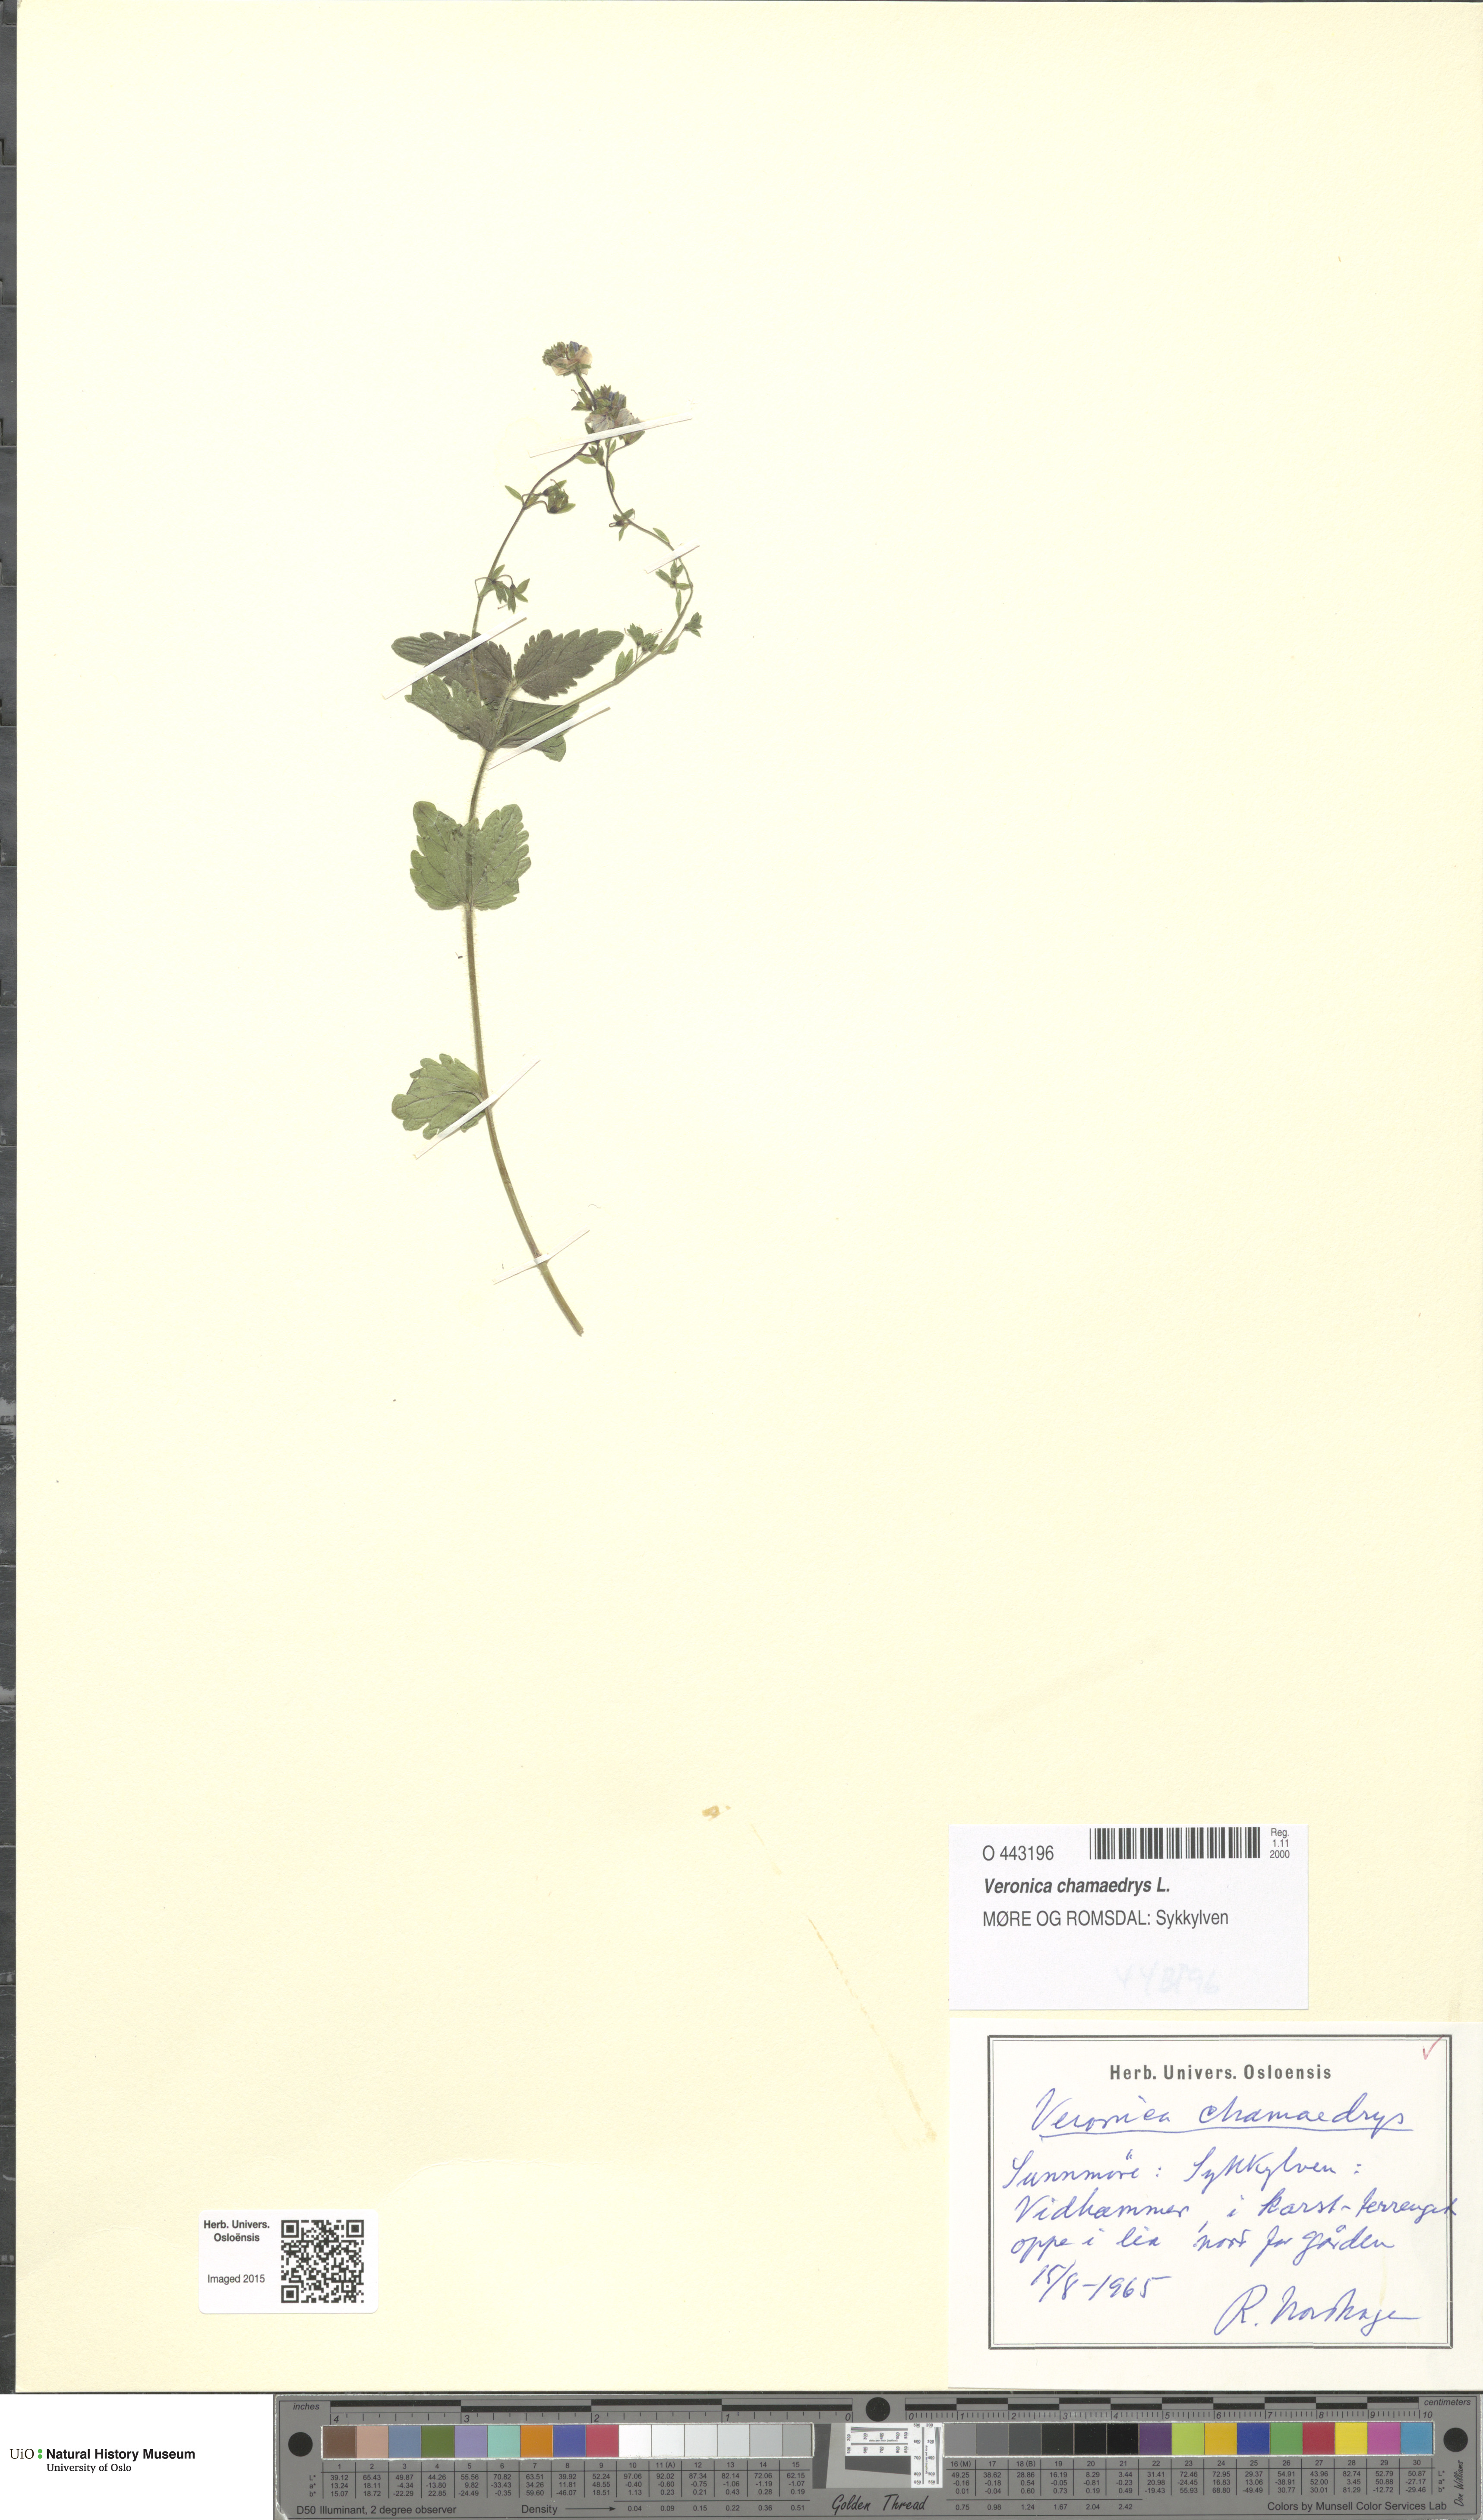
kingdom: Plantae
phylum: Tracheophyta
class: Magnoliopsida
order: Lamiales
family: Plantaginaceae
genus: Veronica
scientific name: Veronica chamaedrys
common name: Germander speedwell
